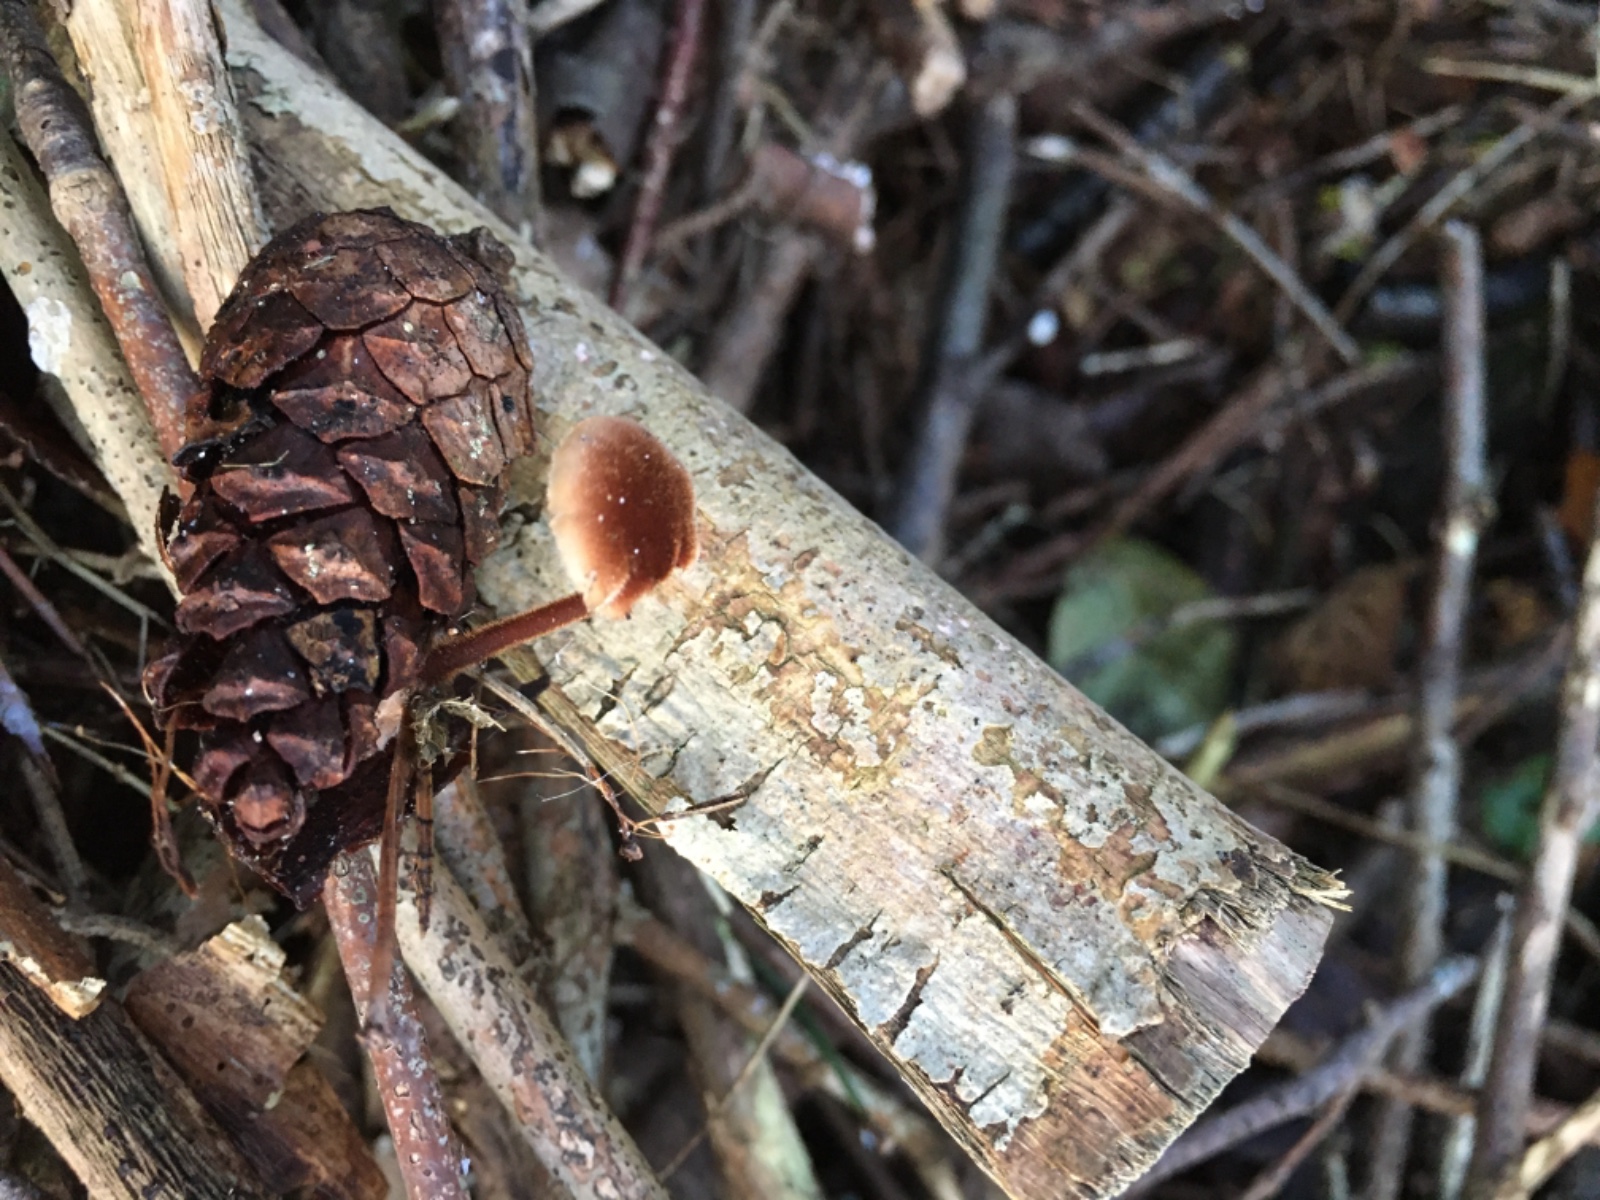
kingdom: Fungi
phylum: Basidiomycota
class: Agaricomycetes
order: Russulales
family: Auriscalpiaceae
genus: Auriscalpium
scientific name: Auriscalpium vulgare
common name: koglepigsvamp
